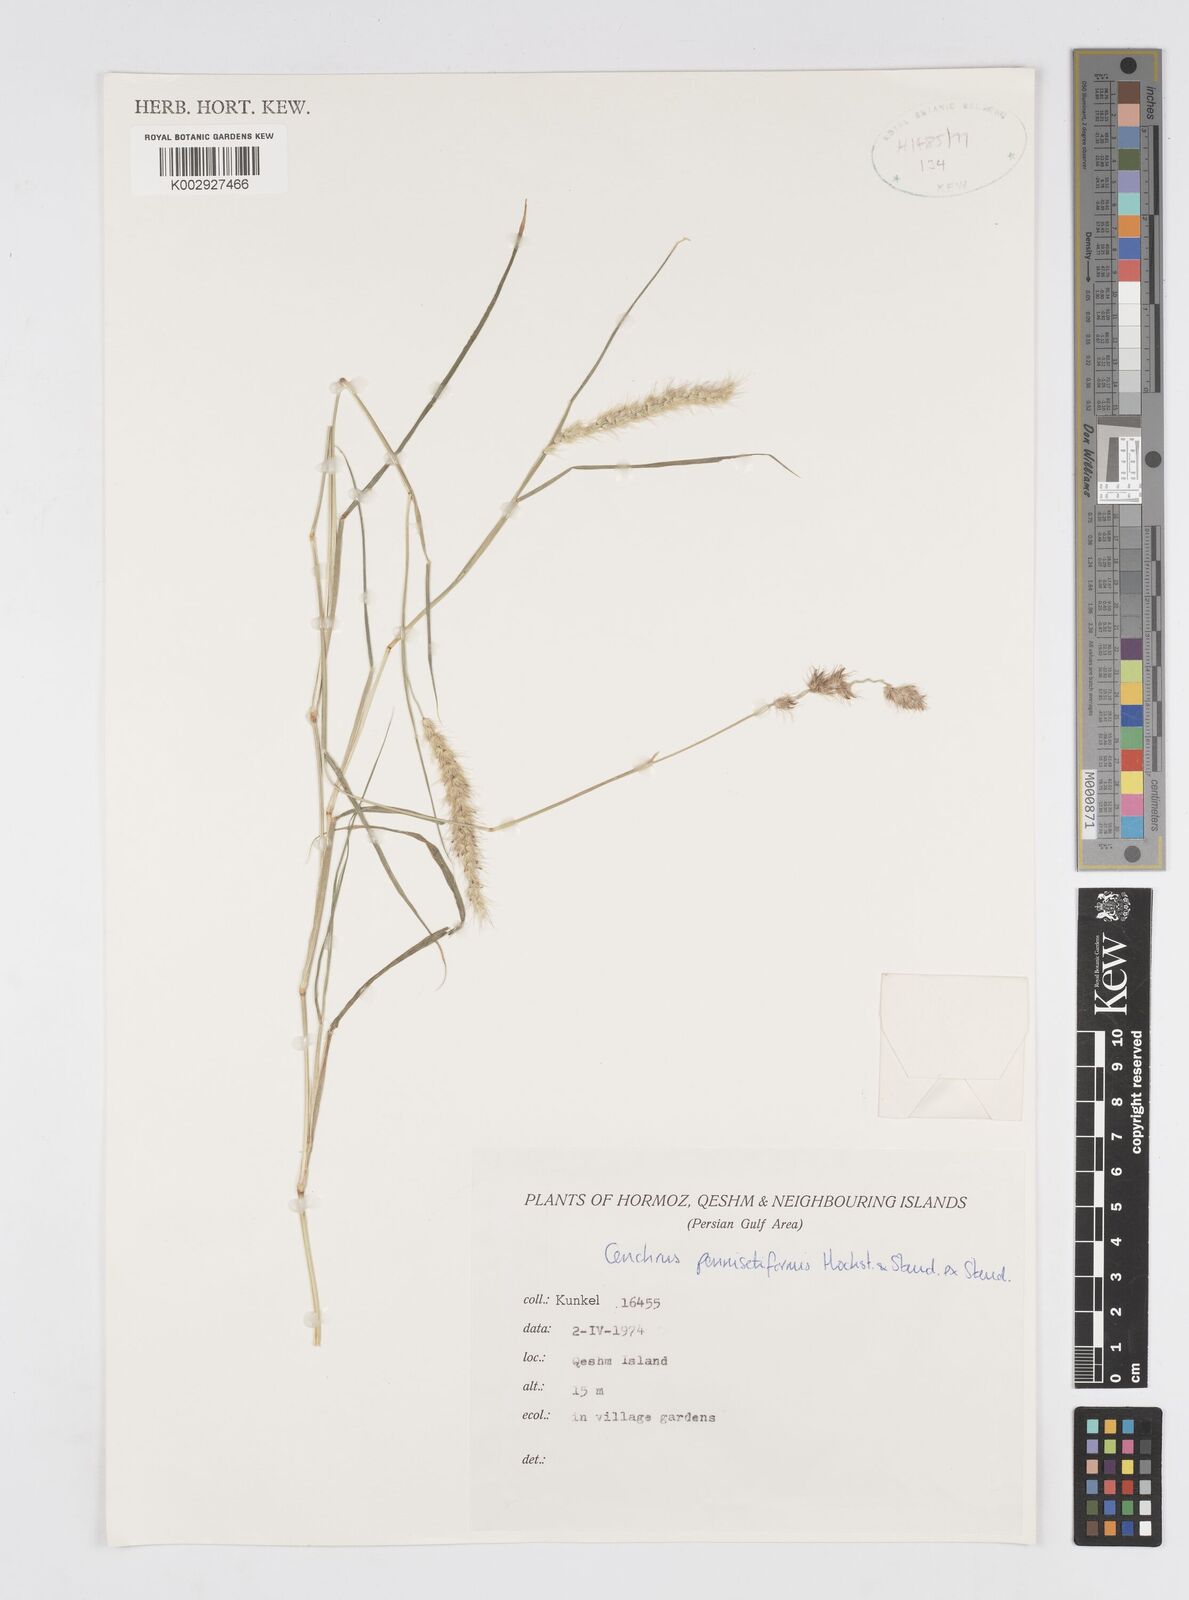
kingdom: Plantae
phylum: Tracheophyta
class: Liliopsida
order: Poales
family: Poaceae
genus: Cenchrus
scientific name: Cenchrus pennisetiformis
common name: Cloncurry
